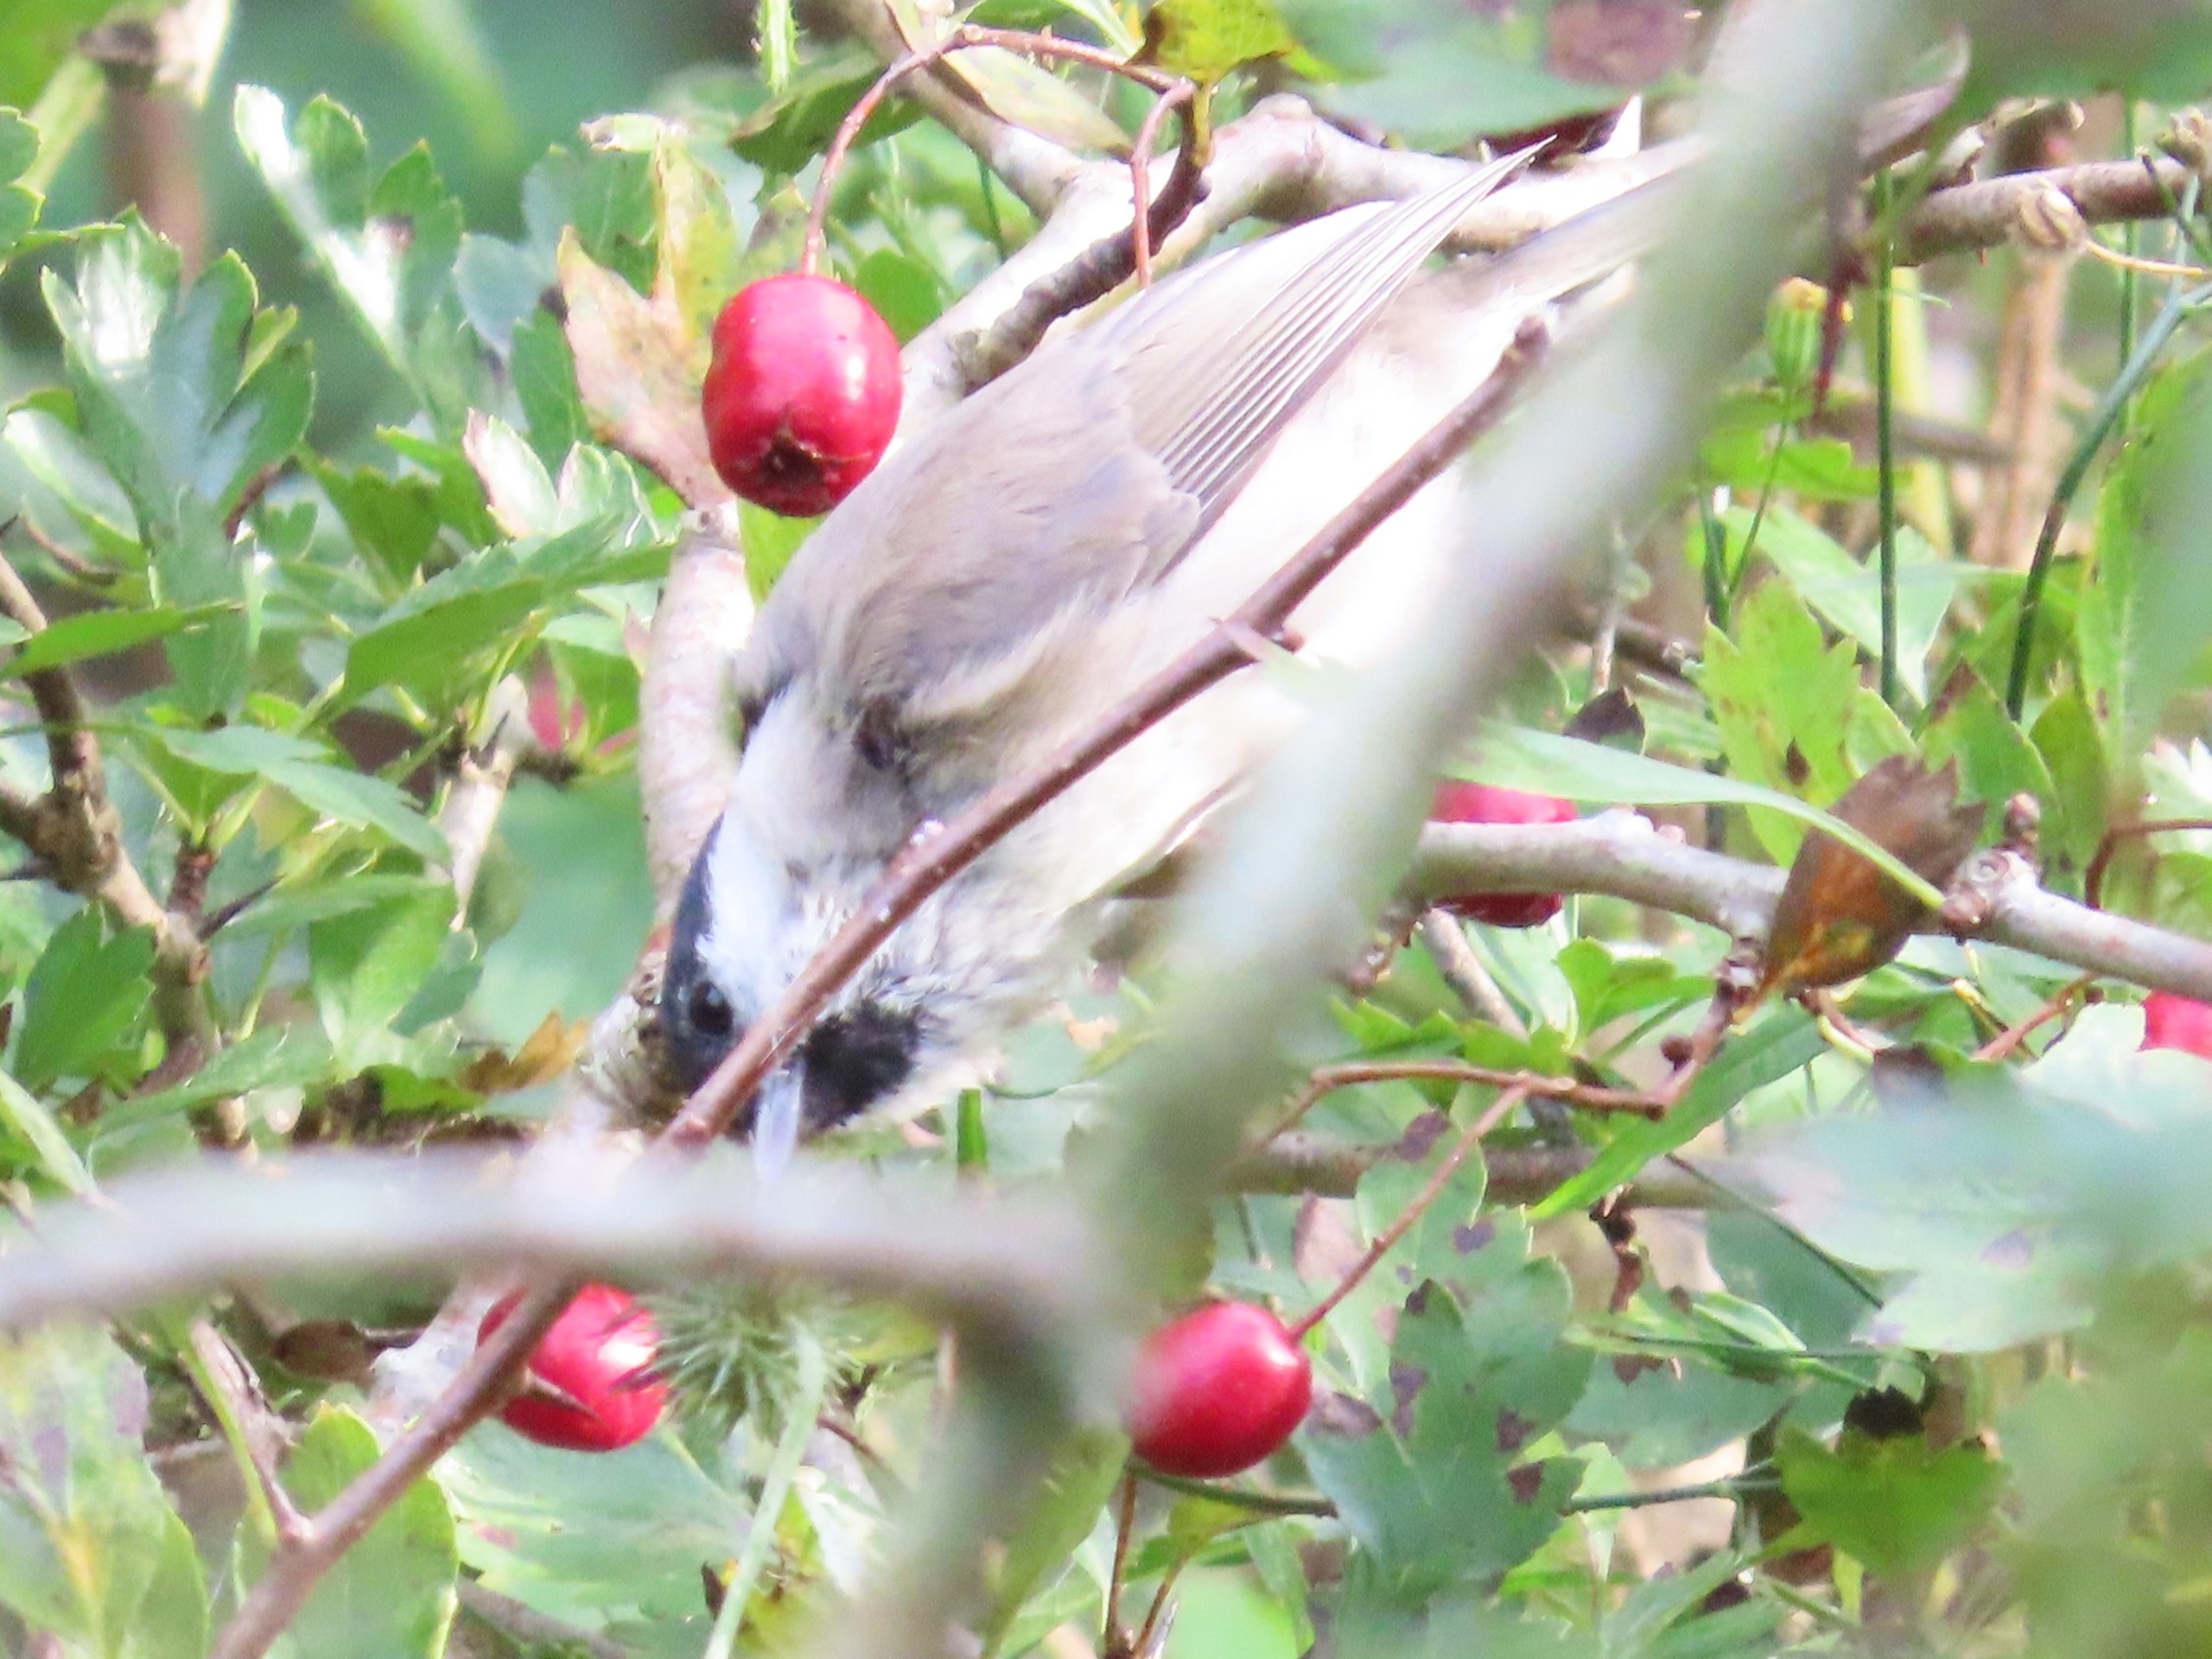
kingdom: Animalia
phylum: Chordata
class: Aves
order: Passeriformes
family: Paridae
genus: Poecile
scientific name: Poecile palustris
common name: Sumpmejse
